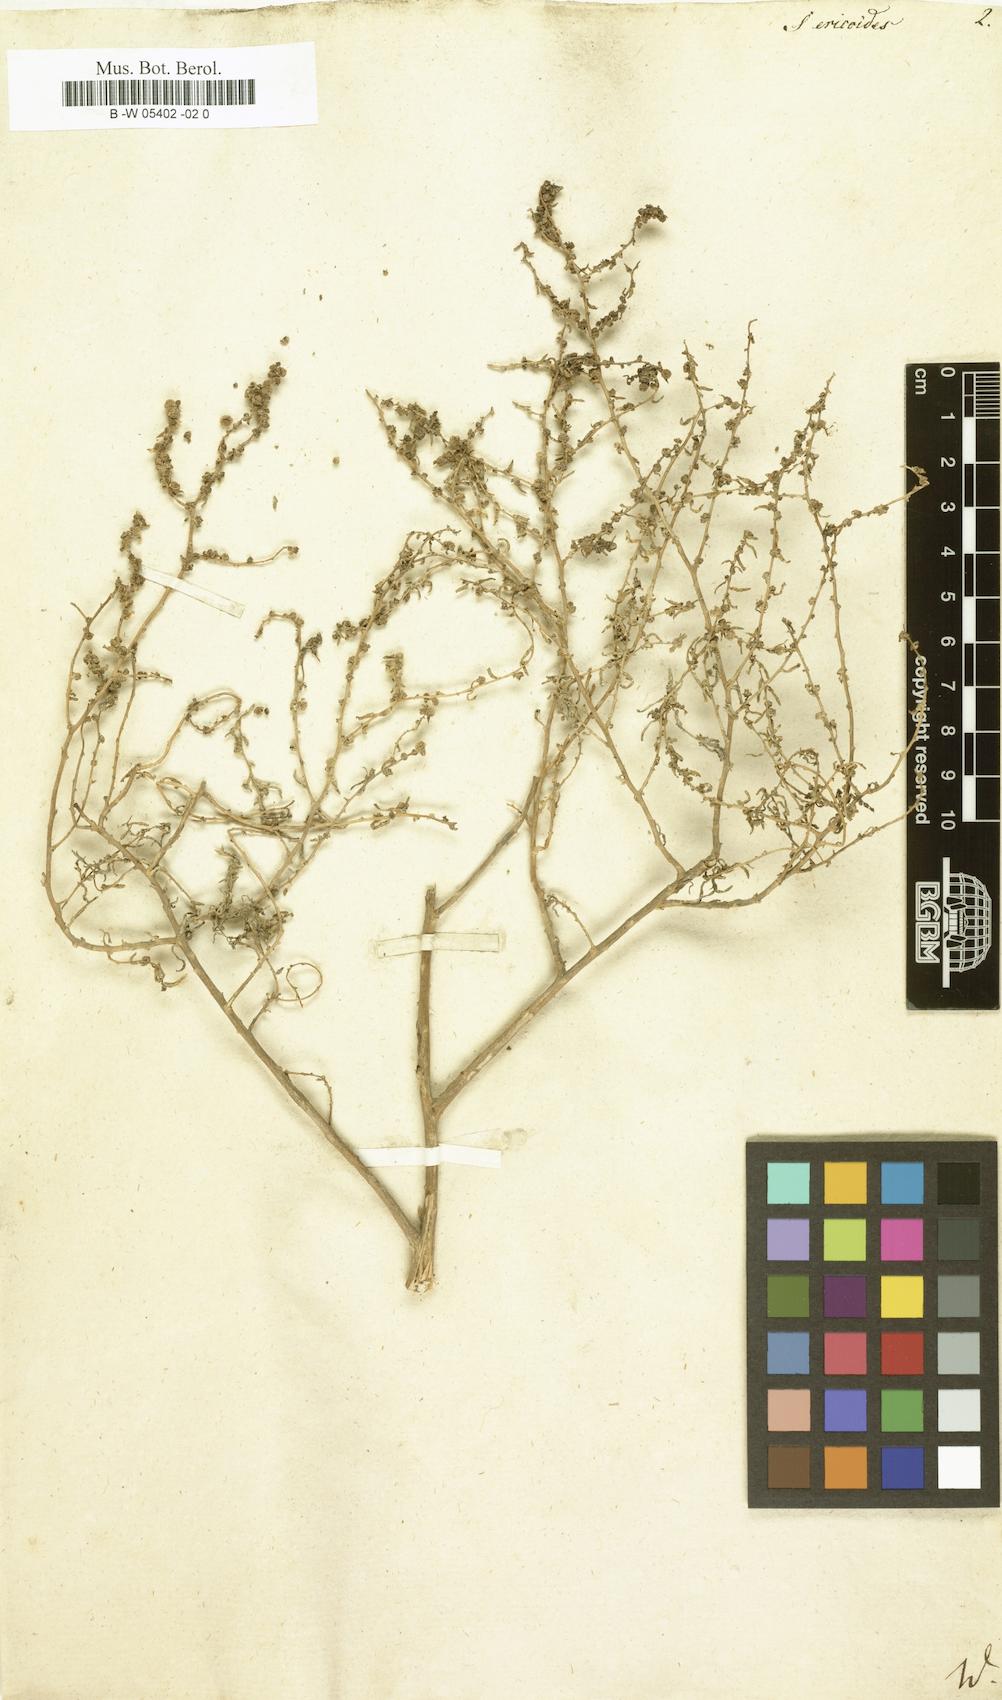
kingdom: Plantae
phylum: Tracheophyta
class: Magnoliopsida
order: Caryophyllales
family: Amaranthaceae
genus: Nitrosalsola
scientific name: Nitrosalsola ericoides
